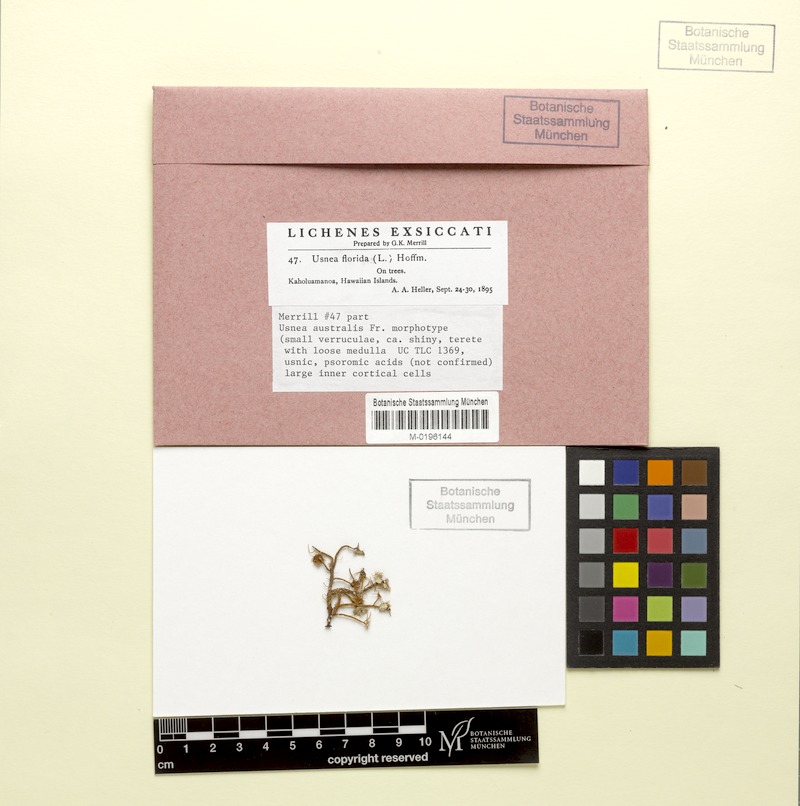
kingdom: Fungi
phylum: Ascomycota
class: Lecanoromycetes
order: Lecanorales
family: Parmeliaceae
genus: Usnea
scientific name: Usnea florida
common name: Witches' whiskers lichen
